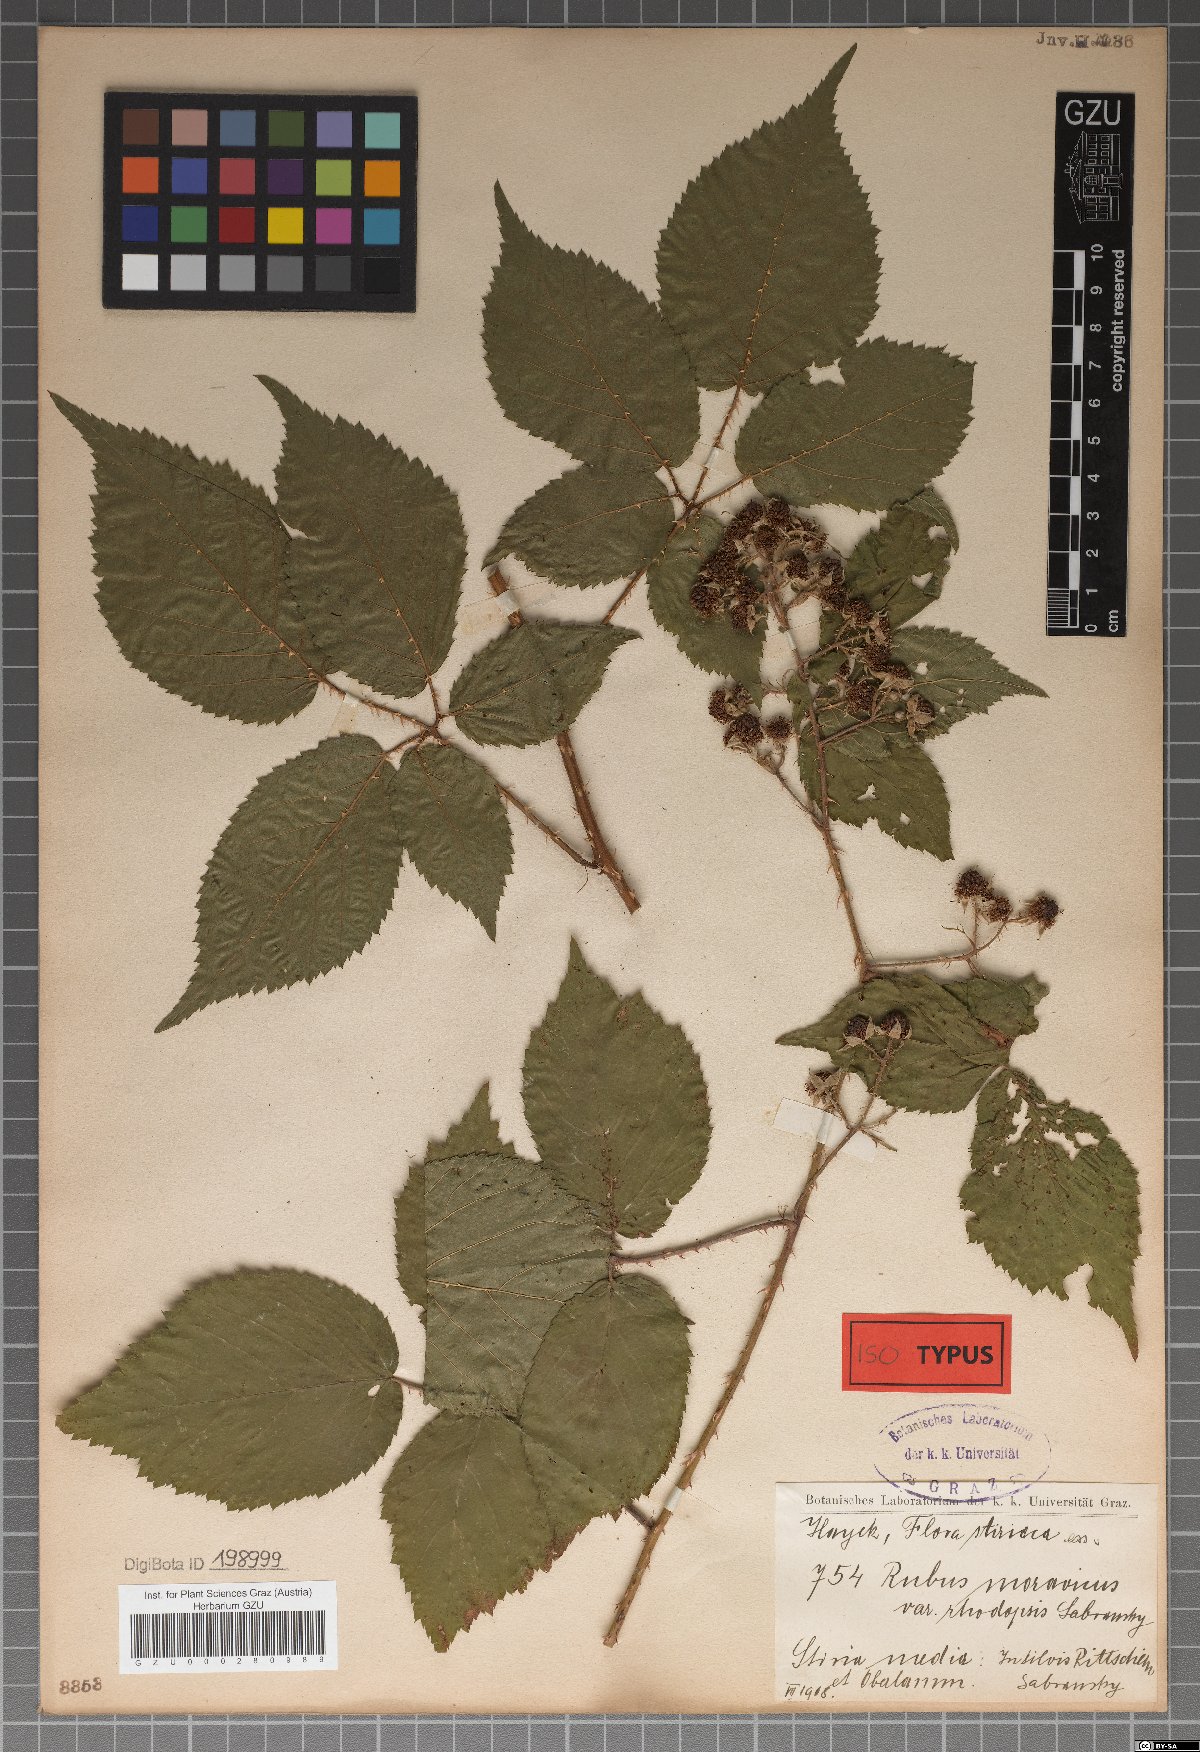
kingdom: Plantae
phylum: Tracheophyta
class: Magnoliopsida
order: Rosales
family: Rosaceae
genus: Rubus
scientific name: Rubus moravicus
